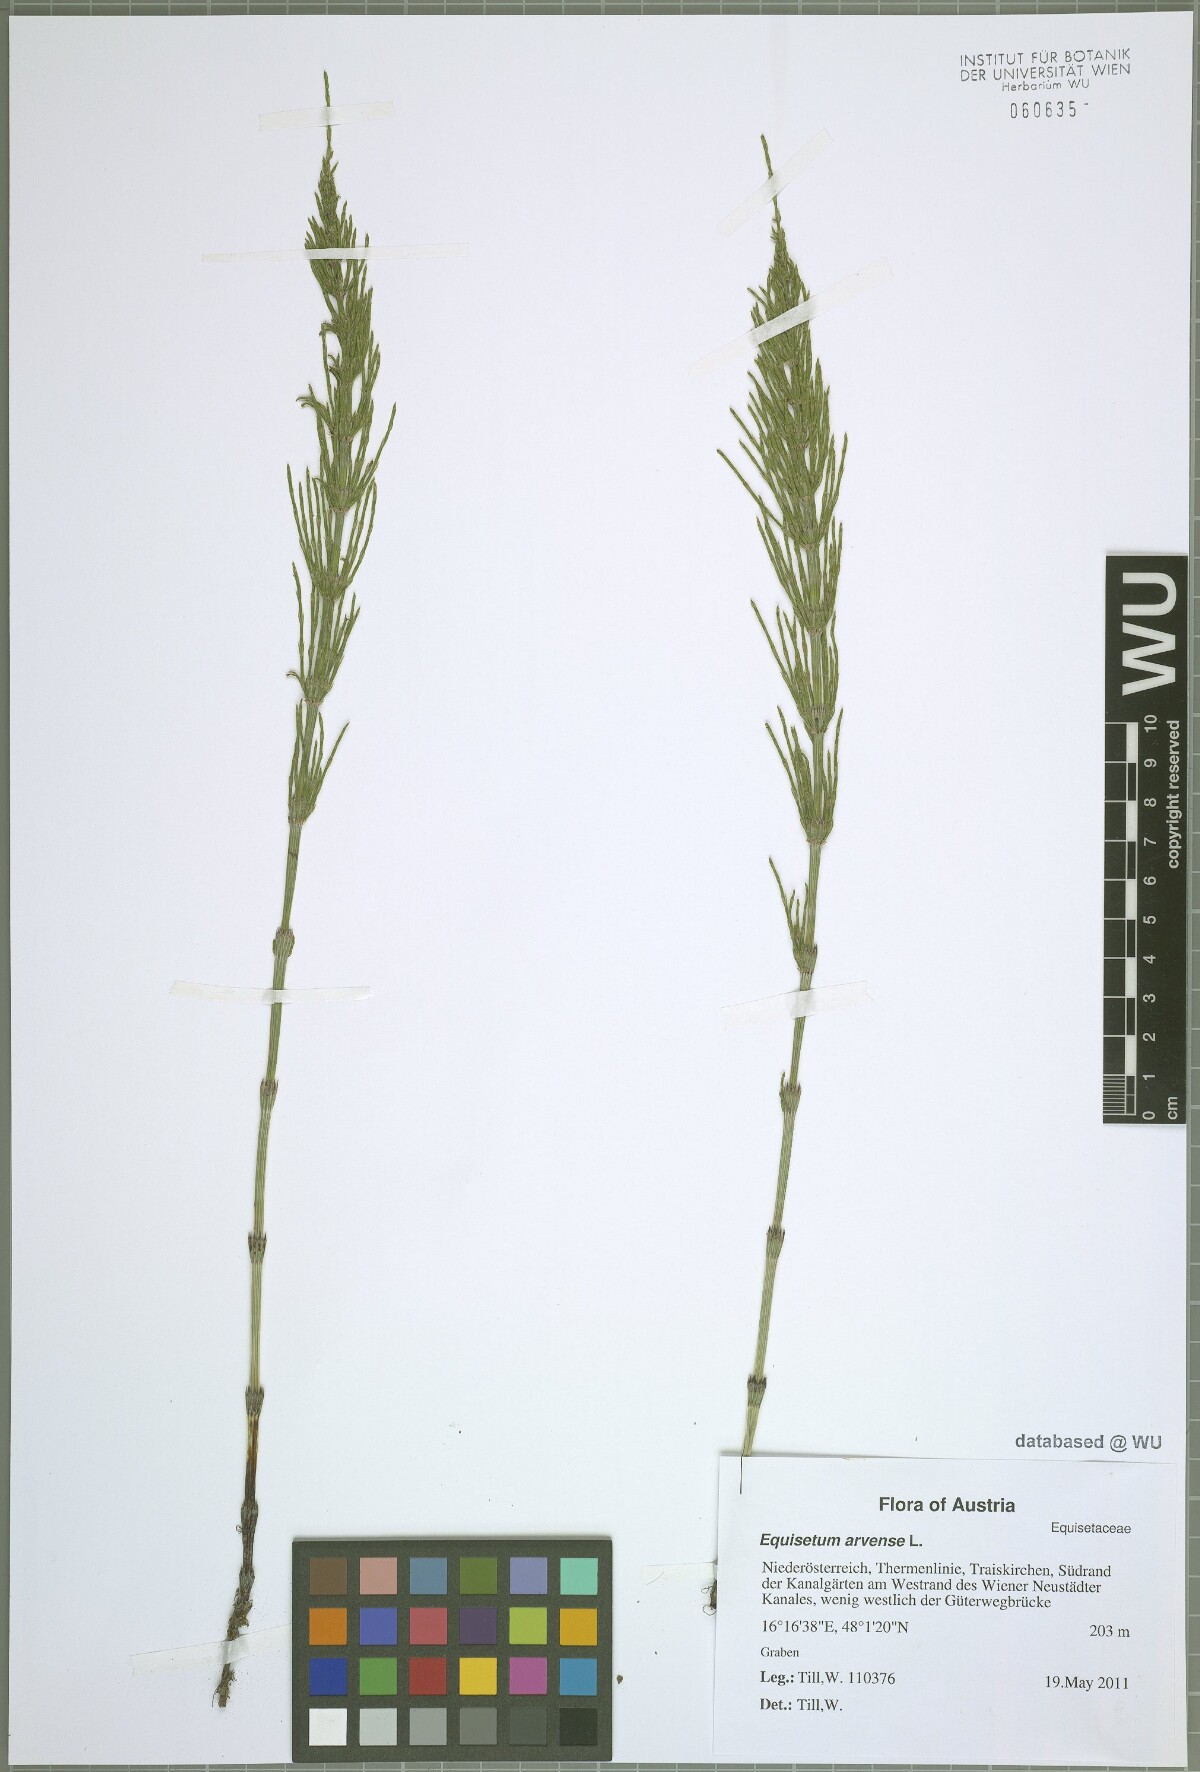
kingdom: Plantae
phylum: Tracheophyta
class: Polypodiopsida
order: Equisetales
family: Equisetaceae
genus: Equisetum
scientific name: Equisetum arvense
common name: Field horsetail
